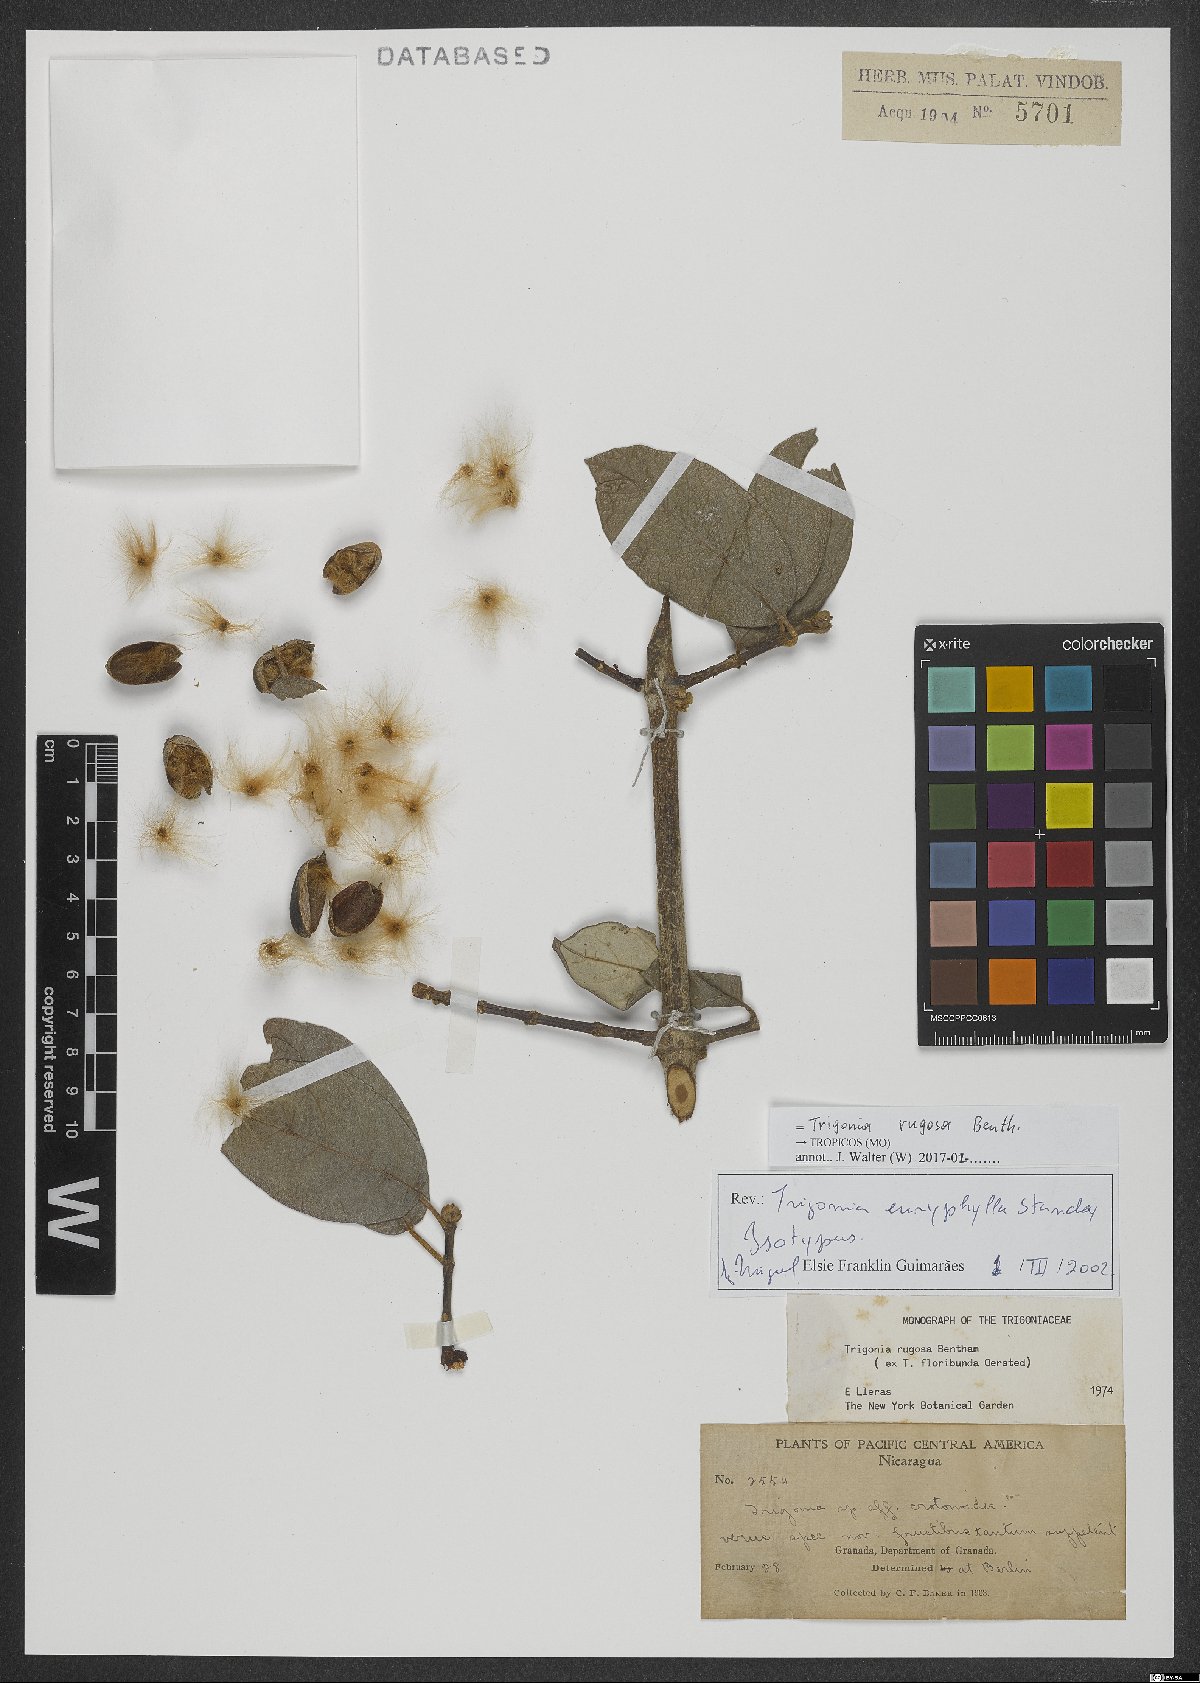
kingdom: Plantae
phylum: Tracheophyta
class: Magnoliopsida
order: Malpighiales
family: Trigoniaceae
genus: Trigonia
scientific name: Trigonia rugosa
